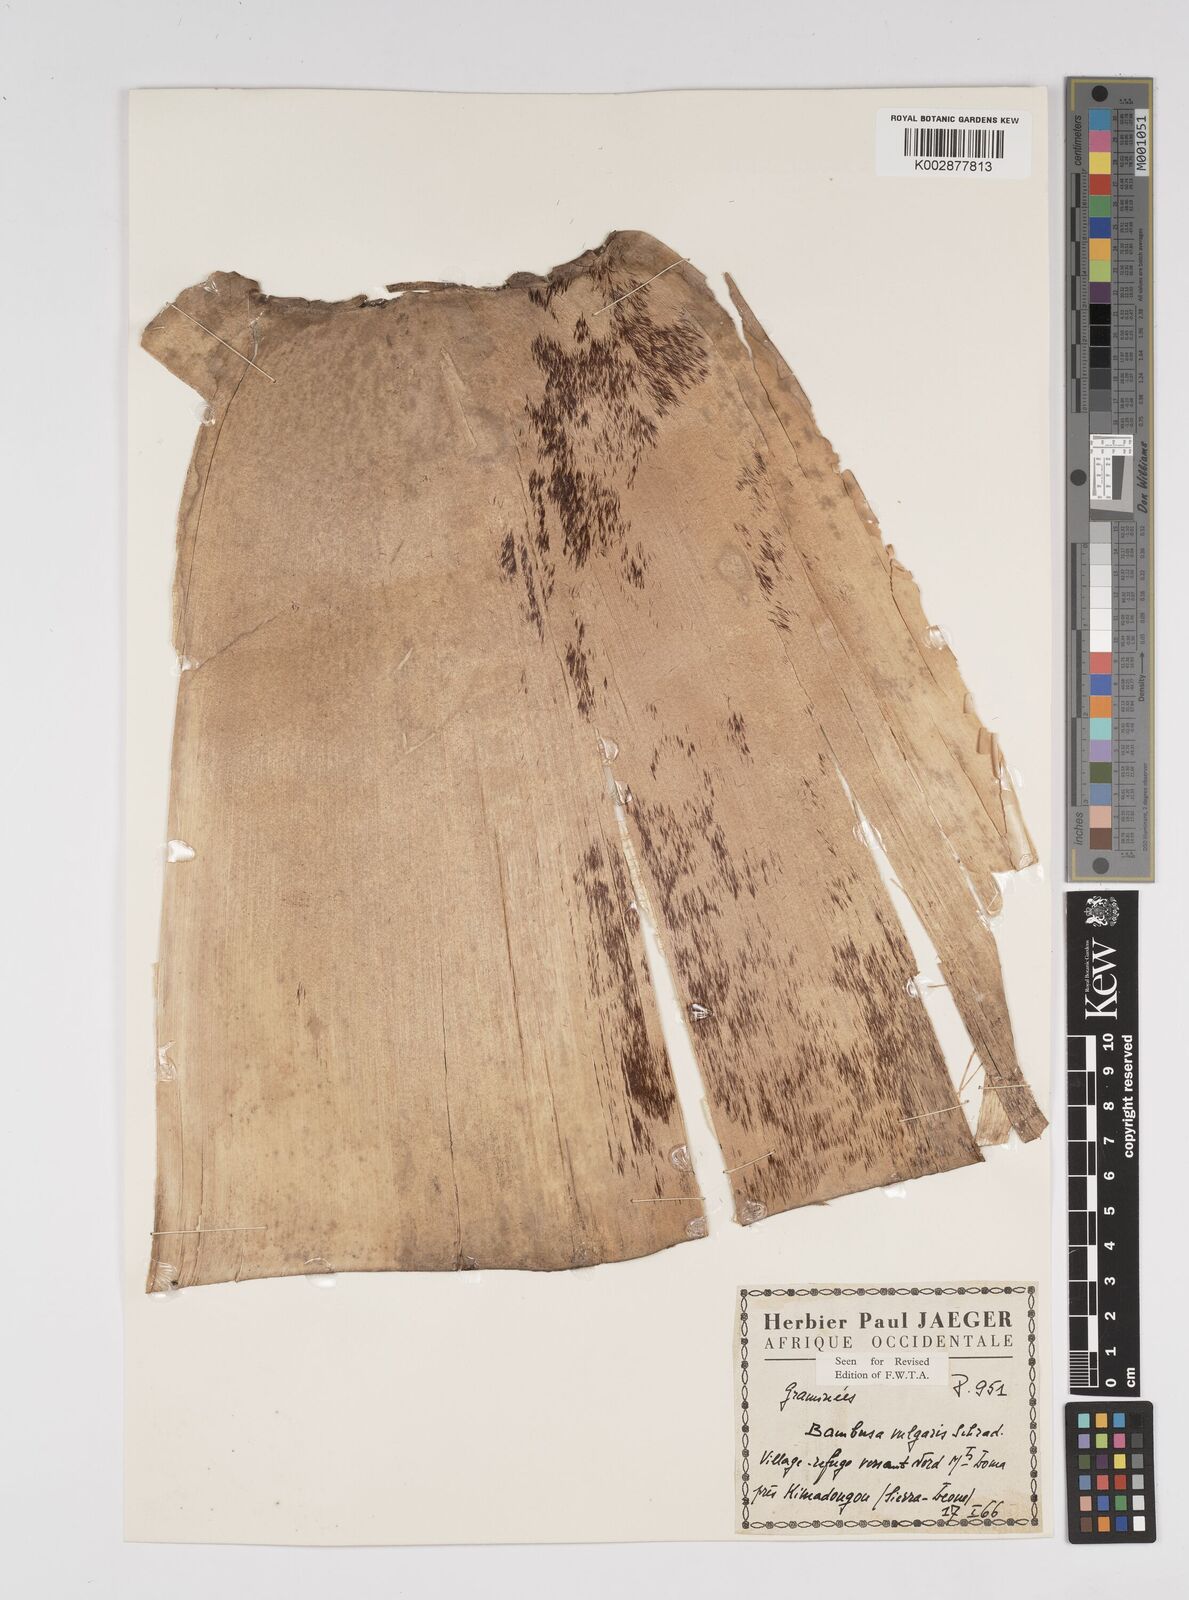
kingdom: Plantae
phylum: Tracheophyta
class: Liliopsida
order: Poales
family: Poaceae
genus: Bambusa
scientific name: Bambusa vulgaris
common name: Common bamboo
